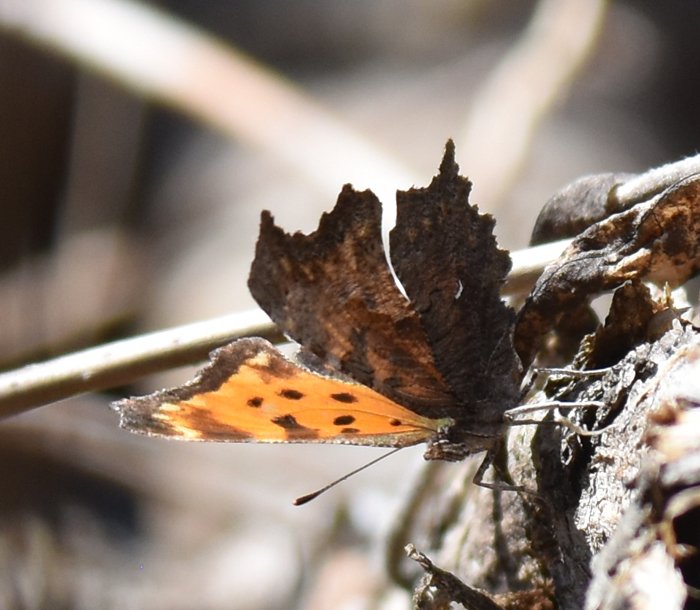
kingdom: Animalia
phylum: Arthropoda
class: Insecta
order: Lepidoptera
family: Nymphalidae
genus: Polygonia
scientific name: Polygonia progne
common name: Gray Comma
